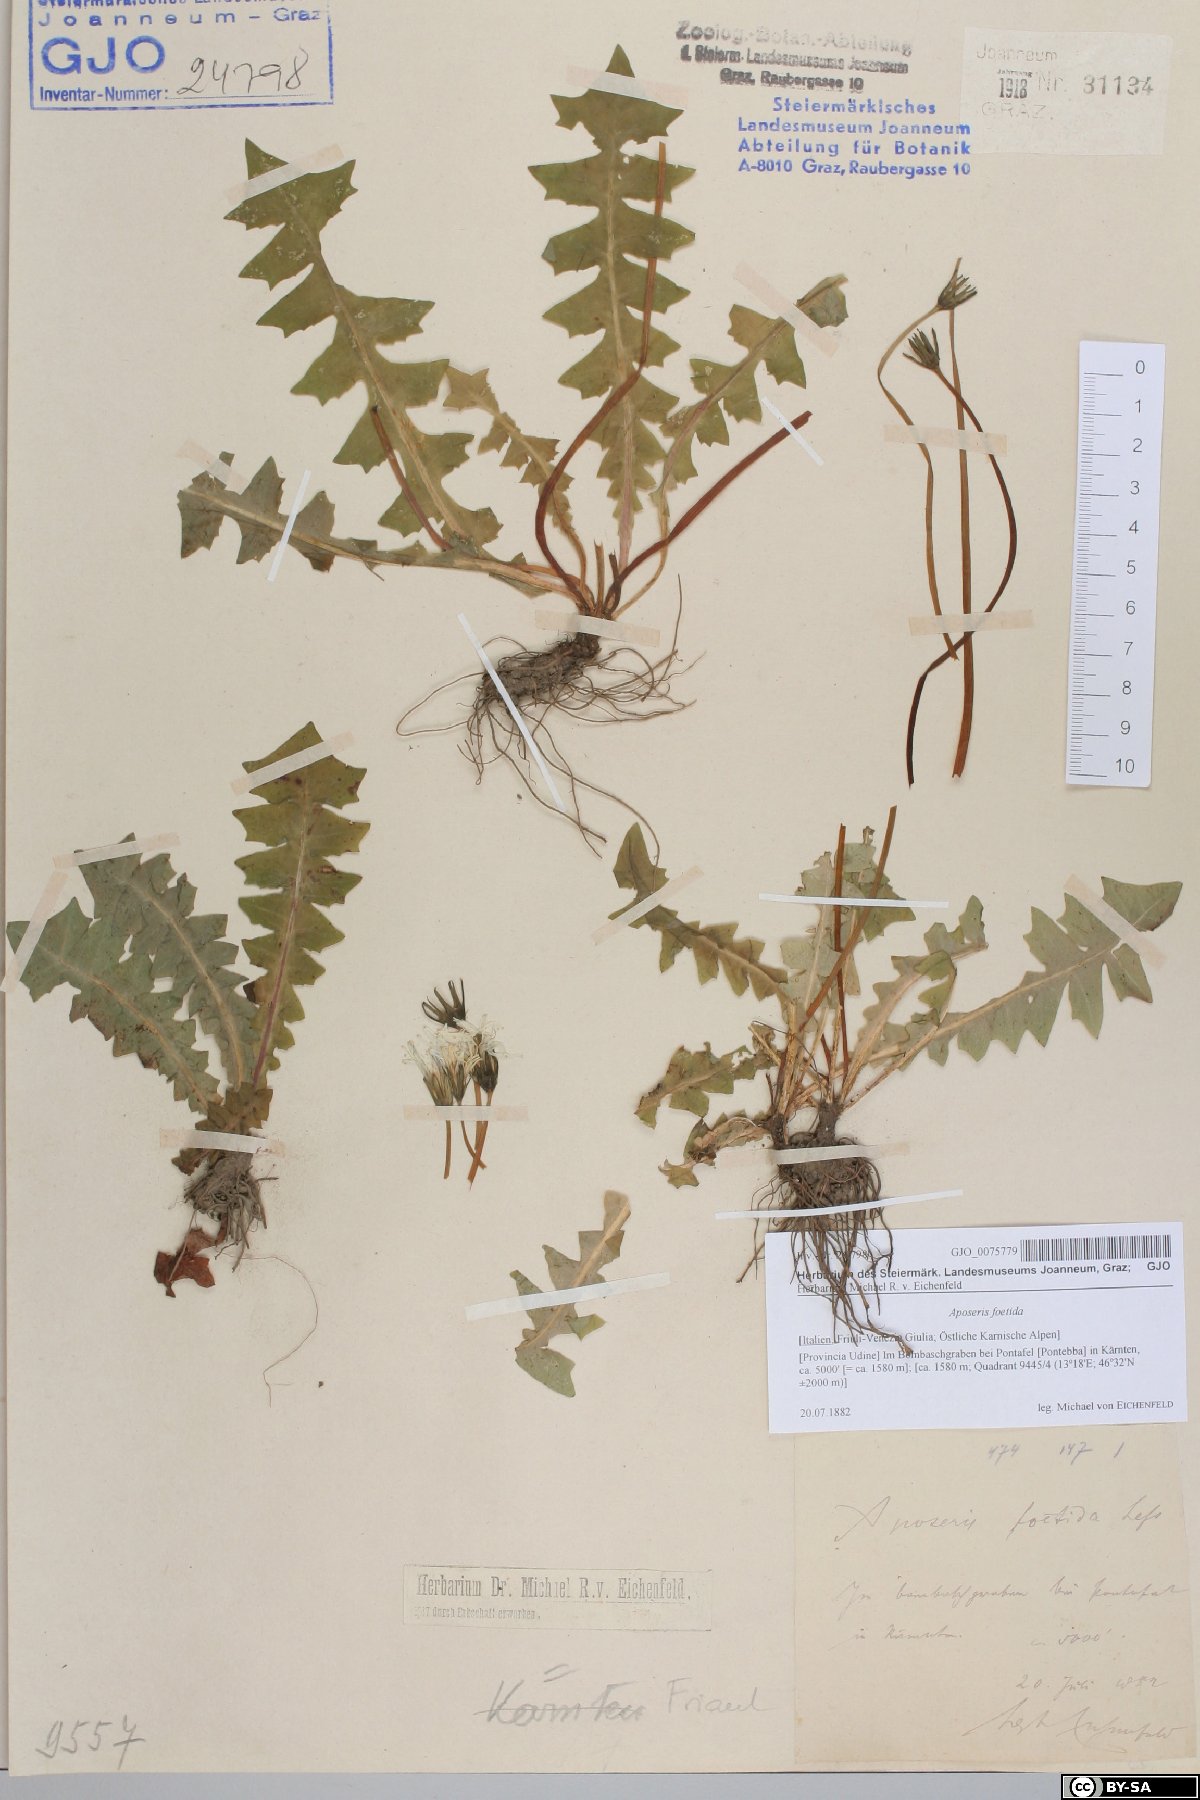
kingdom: Plantae
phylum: Tracheophyta
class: Magnoliopsida
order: Asterales
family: Asteraceae
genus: Aposeris
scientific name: Aposeris foetida
